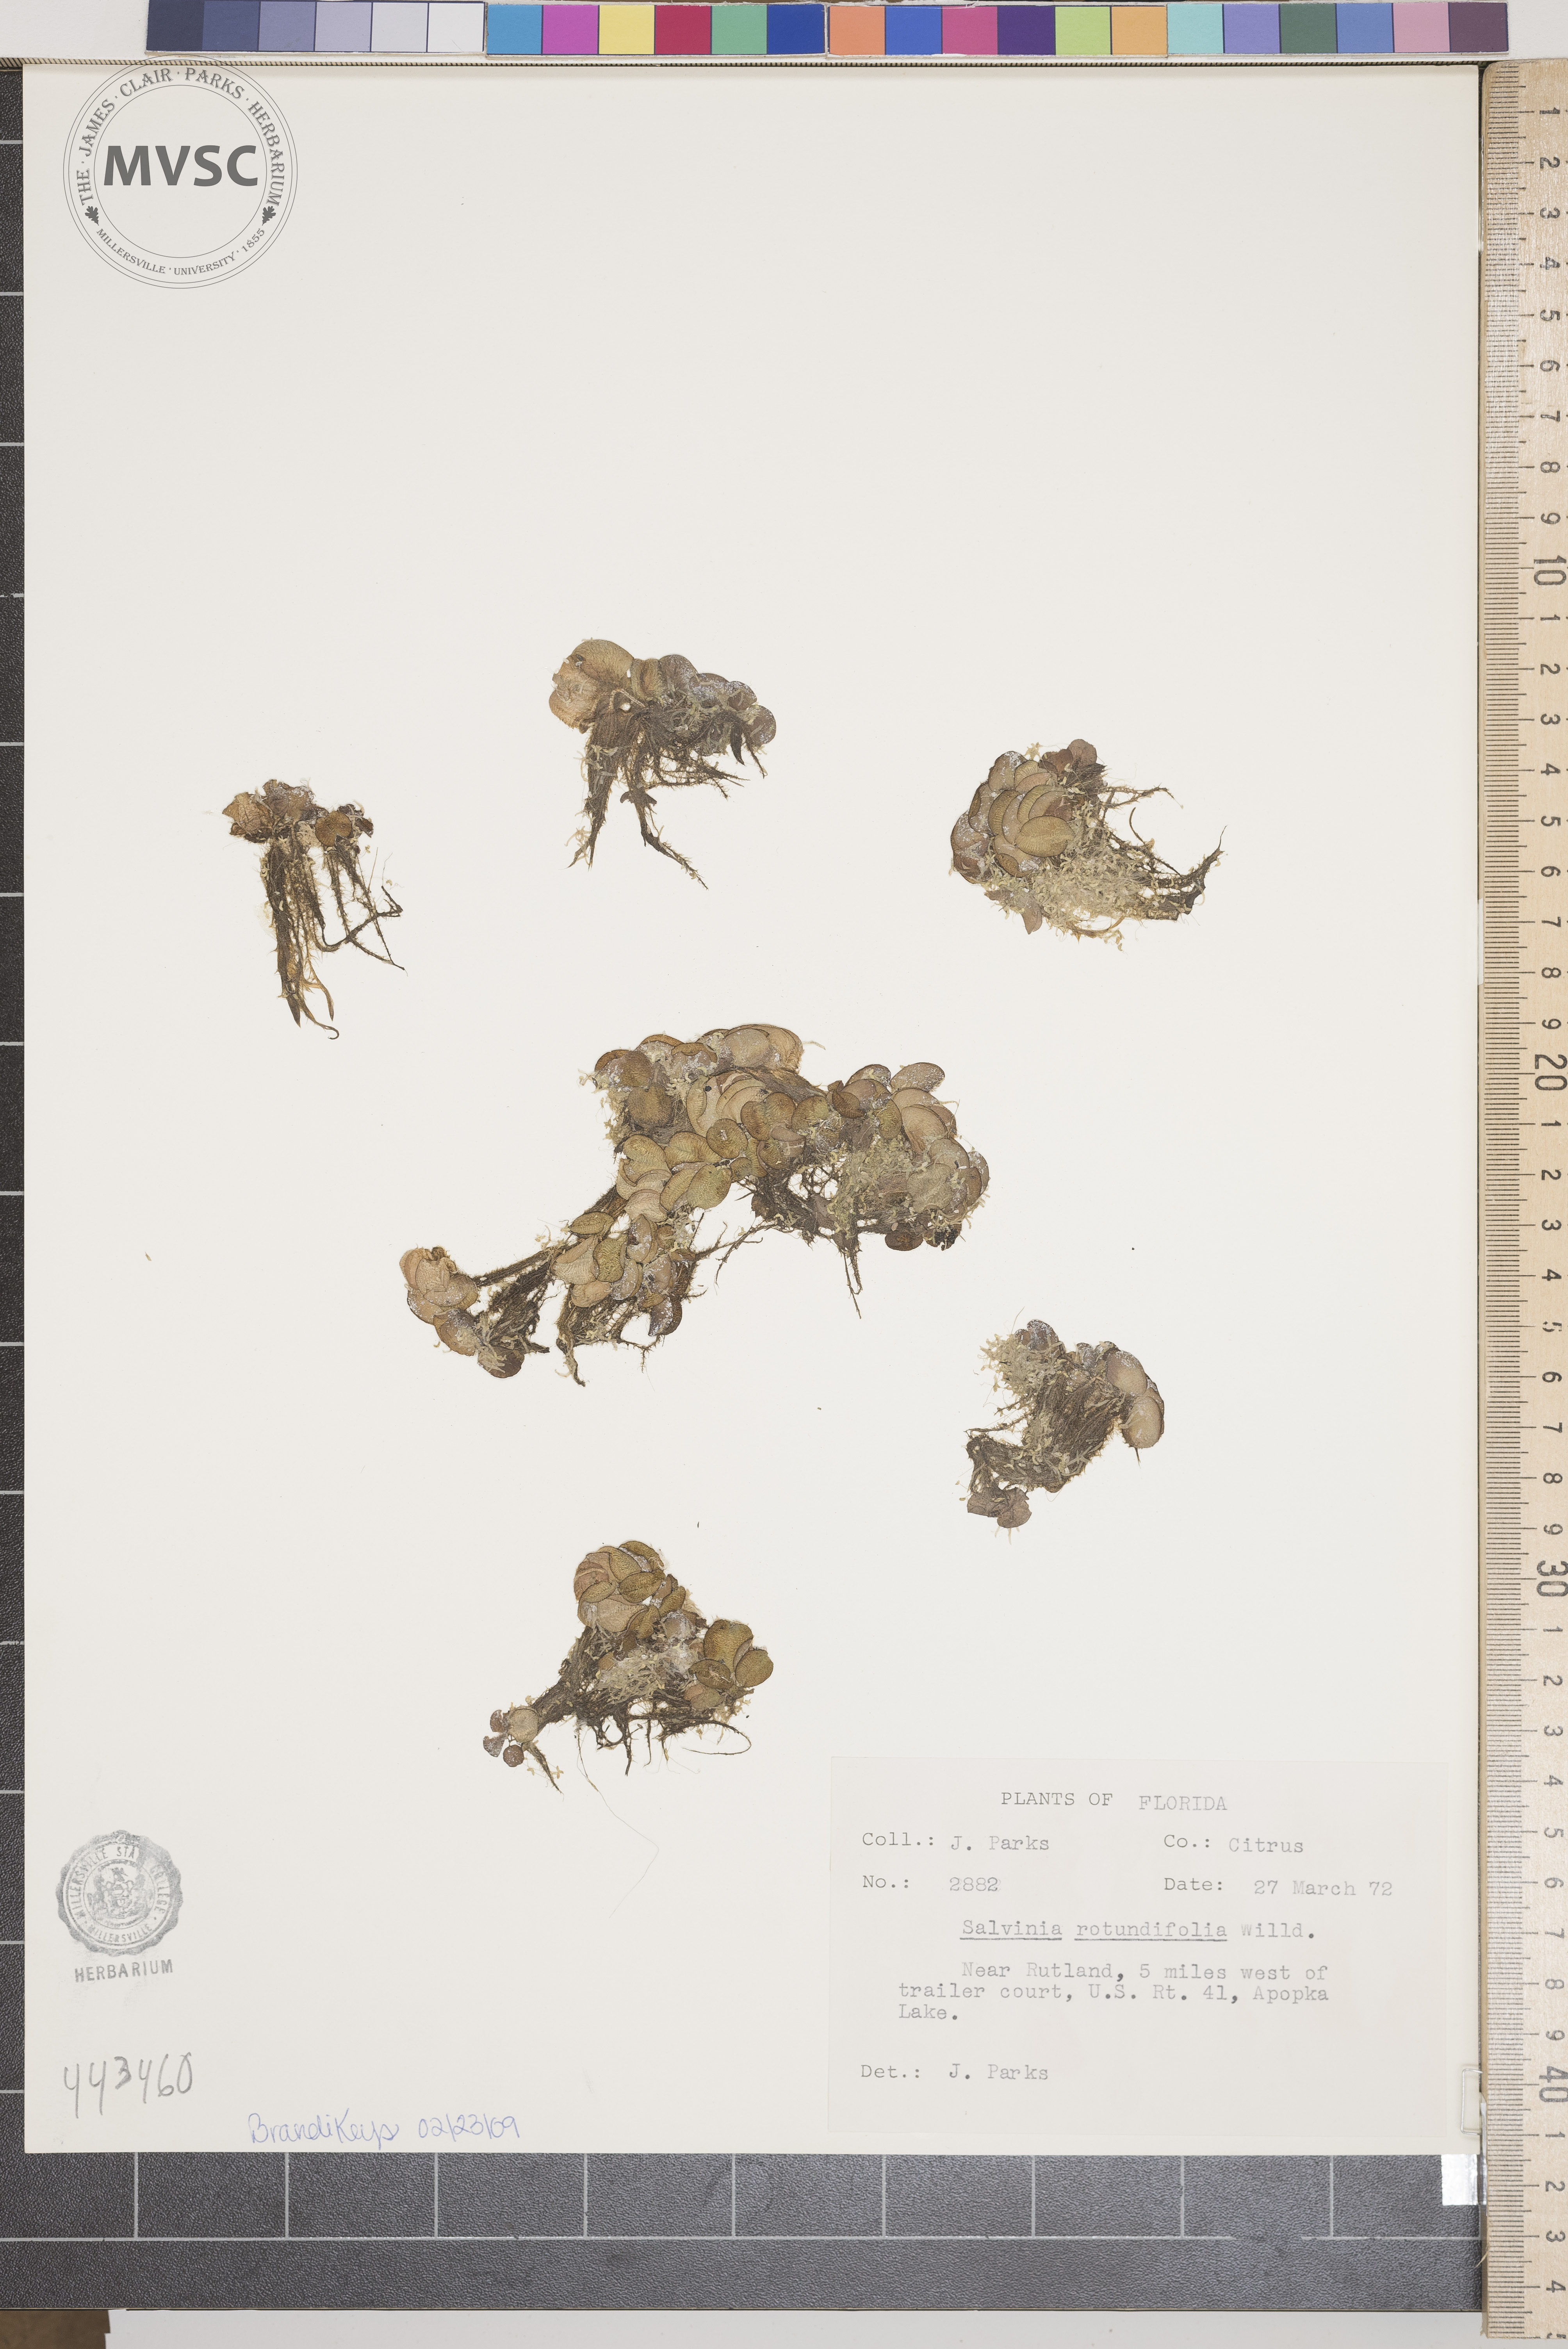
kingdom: Plantae
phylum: Tracheophyta
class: Polypodiopsida
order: Salviniales
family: Salviniaceae
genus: Salvinia
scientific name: Salvinia auriculata
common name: African payal
